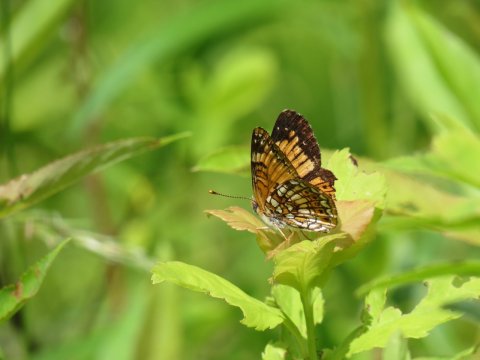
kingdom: Animalia
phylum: Arthropoda
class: Insecta
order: Lepidoptera
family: Nymphalidae
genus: Chlosyne
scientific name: Chlosyne harrisii
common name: Harris's Checkerspot
